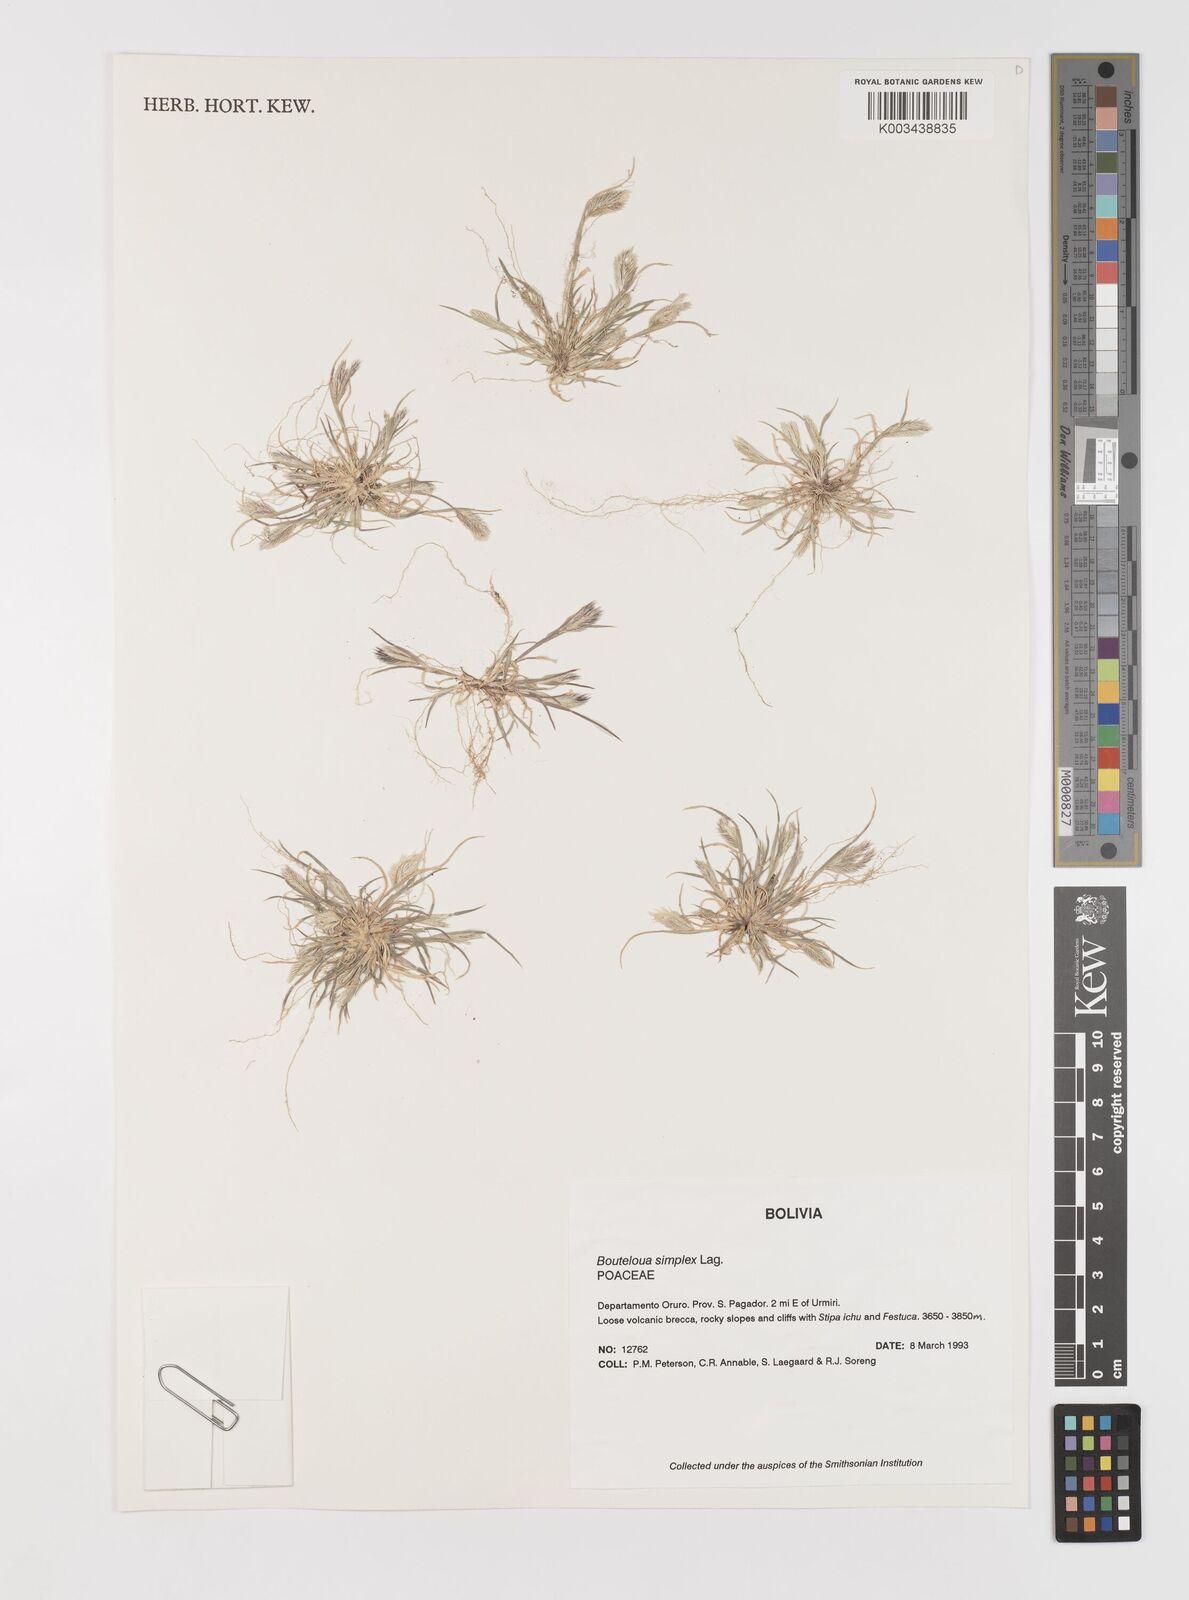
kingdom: Plantae
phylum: Tracheophyta
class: Liliopsida
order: Poales
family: Poaceae
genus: Bouteloua
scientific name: Bouteloua simplex
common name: Mat grama
